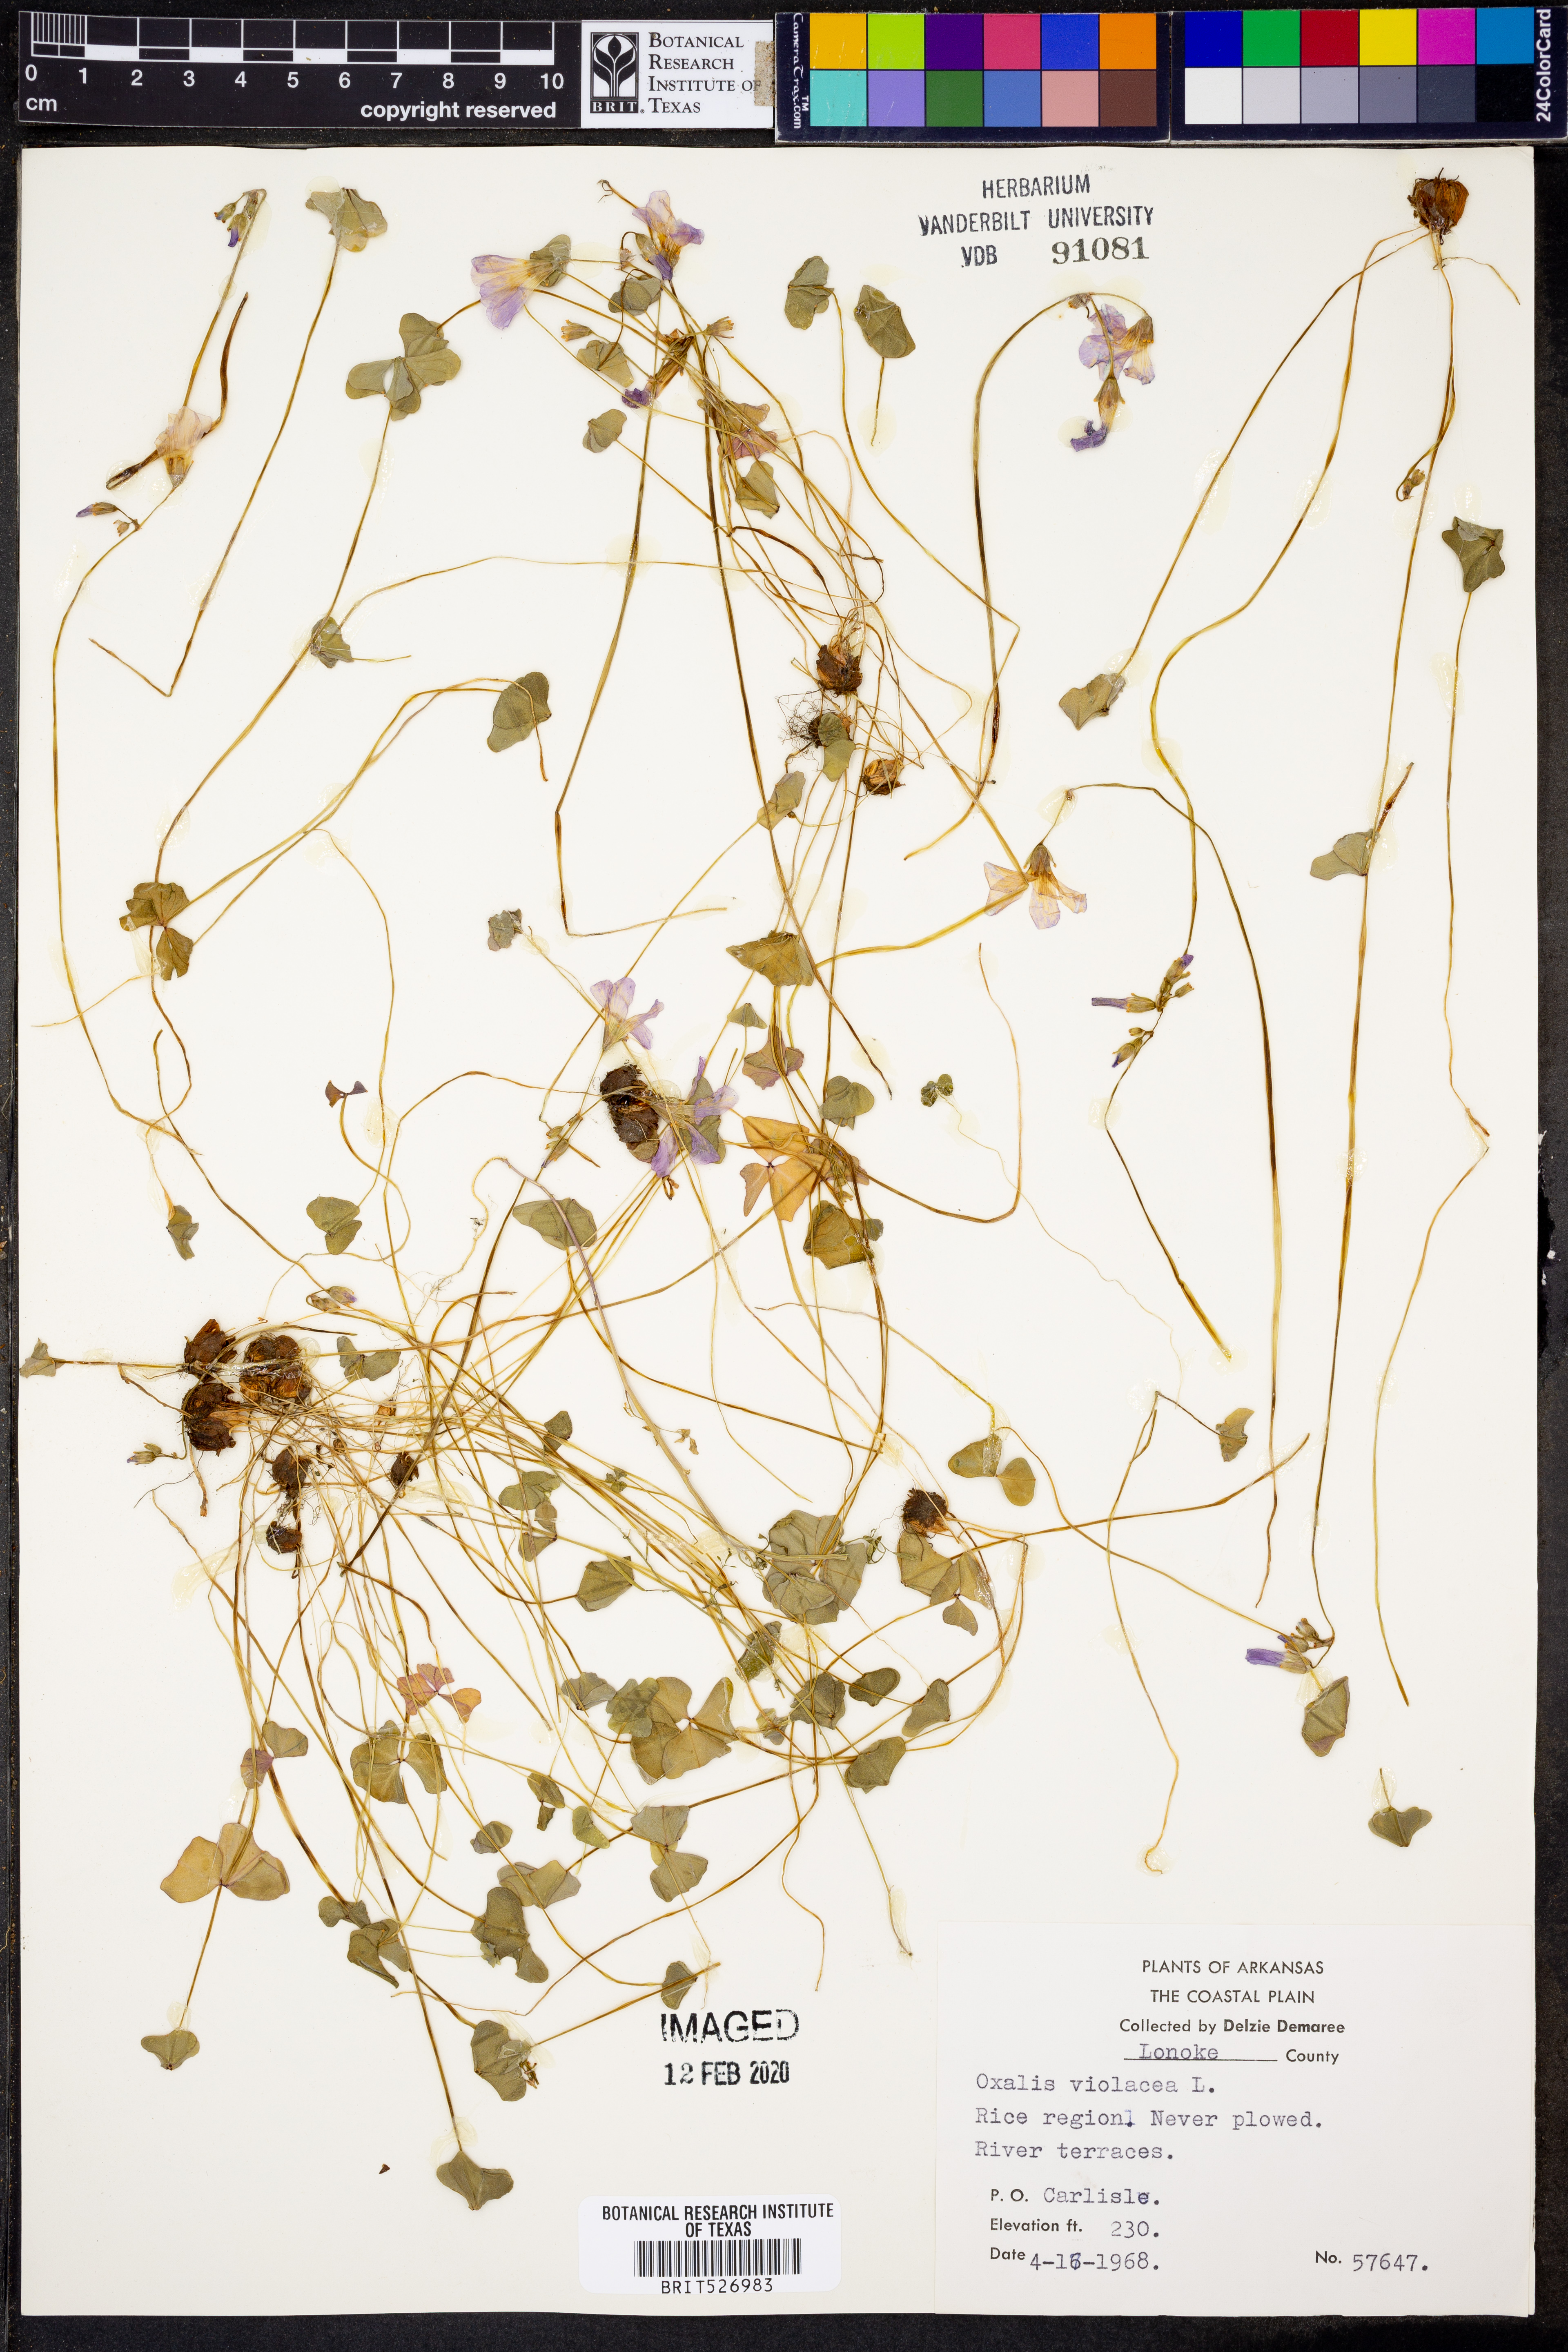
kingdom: Plantae
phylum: Tracheophyta
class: Magnoliopsida
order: Oxalidales
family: Oxalidaceae
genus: Oxalis
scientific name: Oxalis violacea
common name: Violet wood-sorrel
